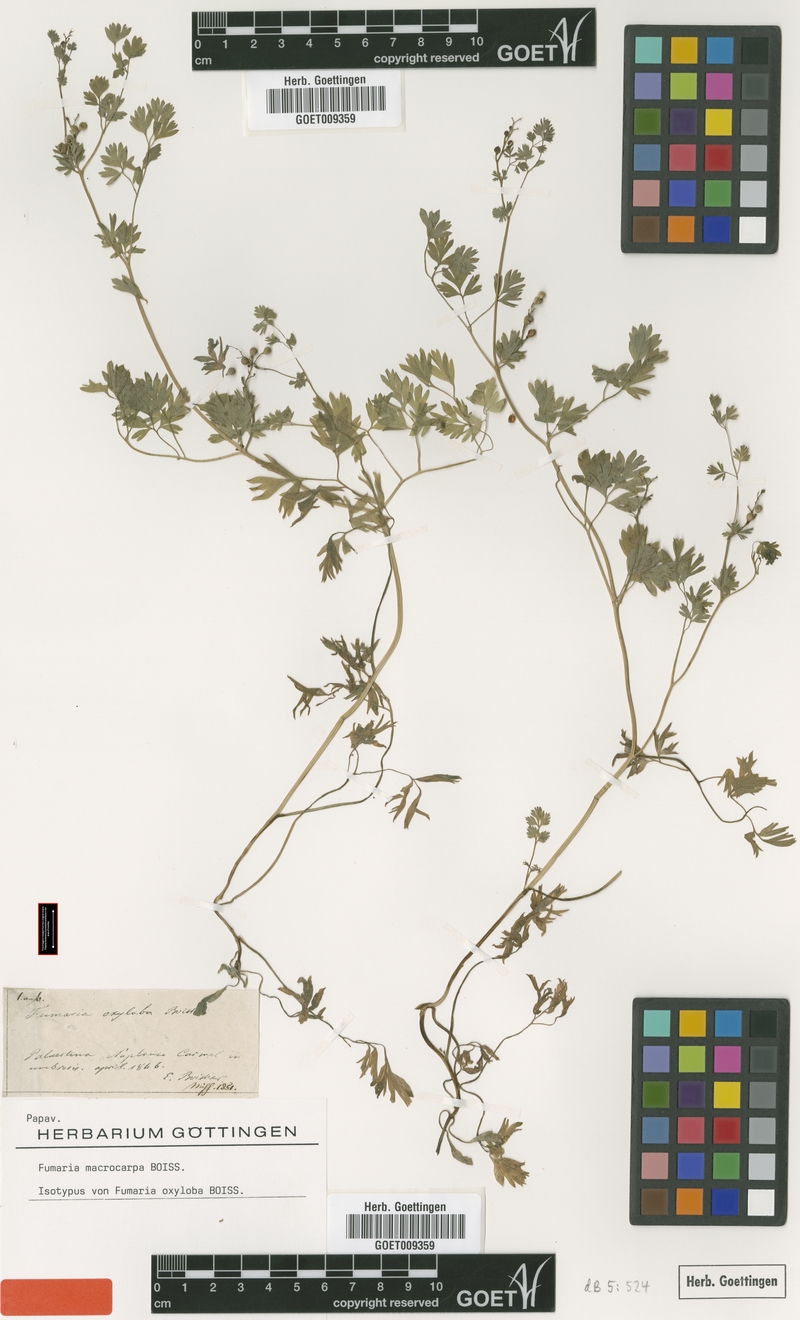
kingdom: Plantae
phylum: Tracheophyta
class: Magnoliopsida
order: Ranunculales
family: Papaveraceae
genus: Fumaria
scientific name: Fumaria schleicheri
